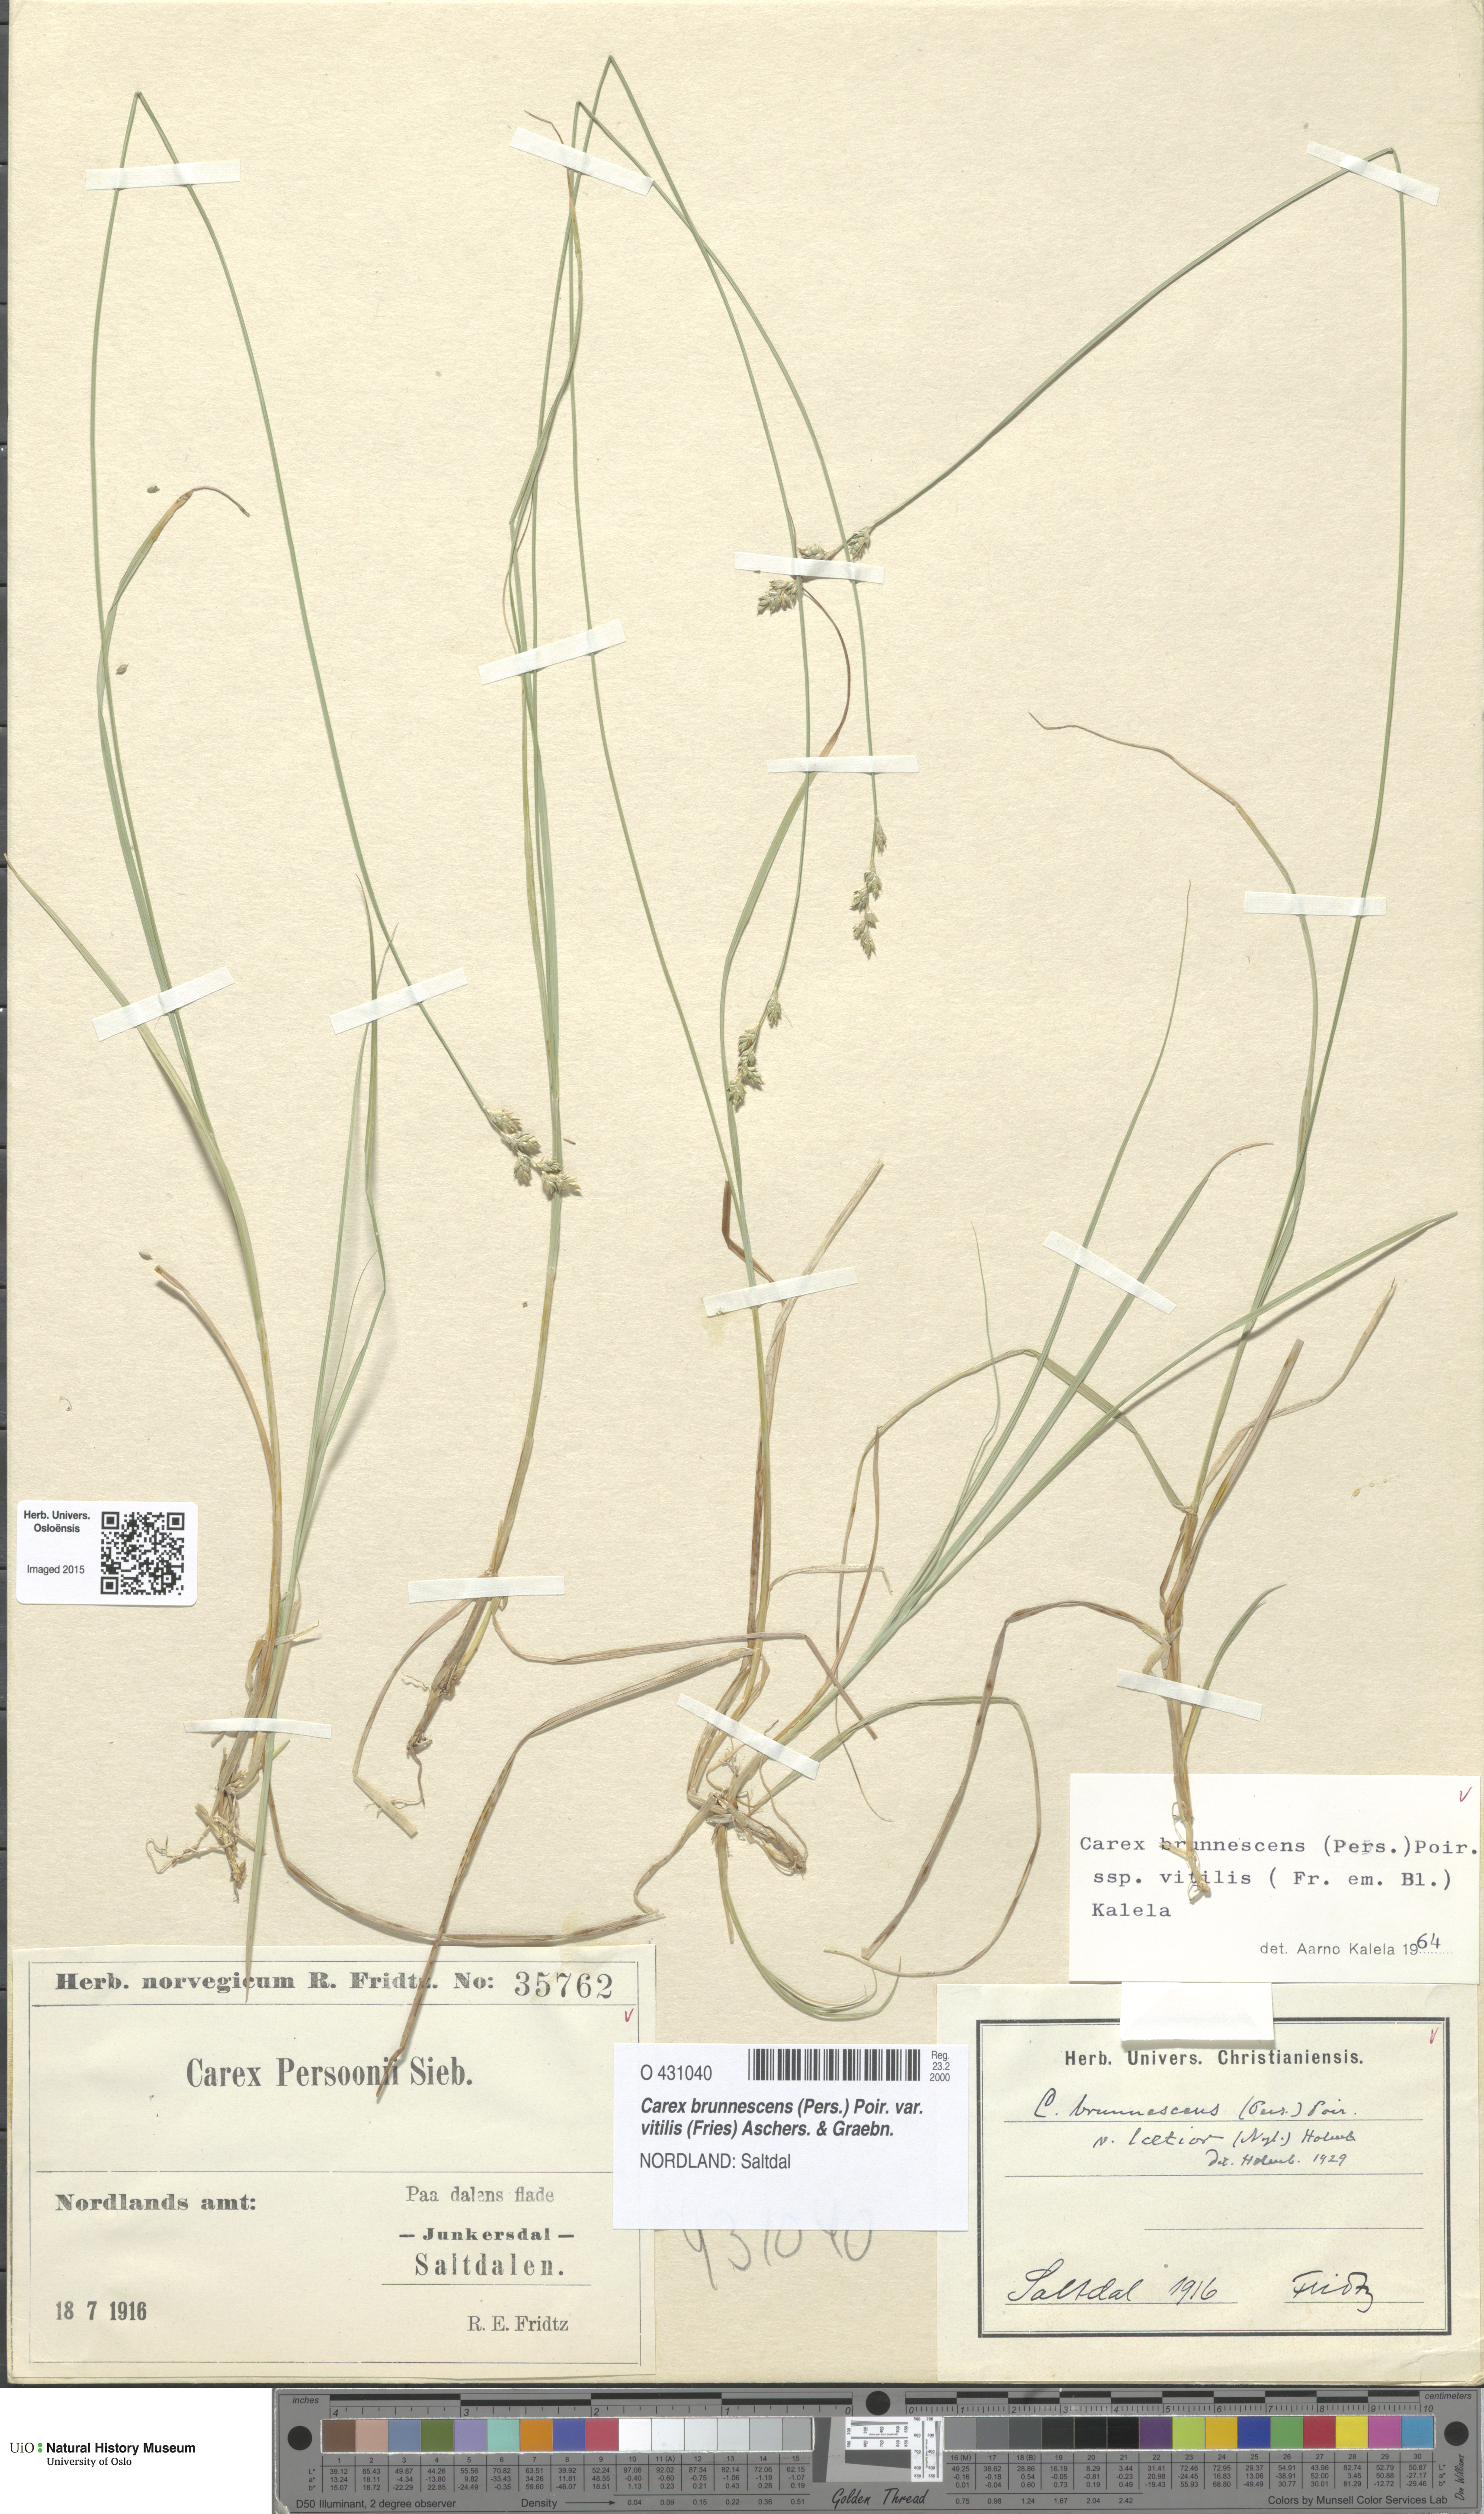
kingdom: Plantae
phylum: Tracheophyta
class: Liliopsida
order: Poales
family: Cyperaceae
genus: Carex
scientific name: Carex brunnescens
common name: Brown sedge
